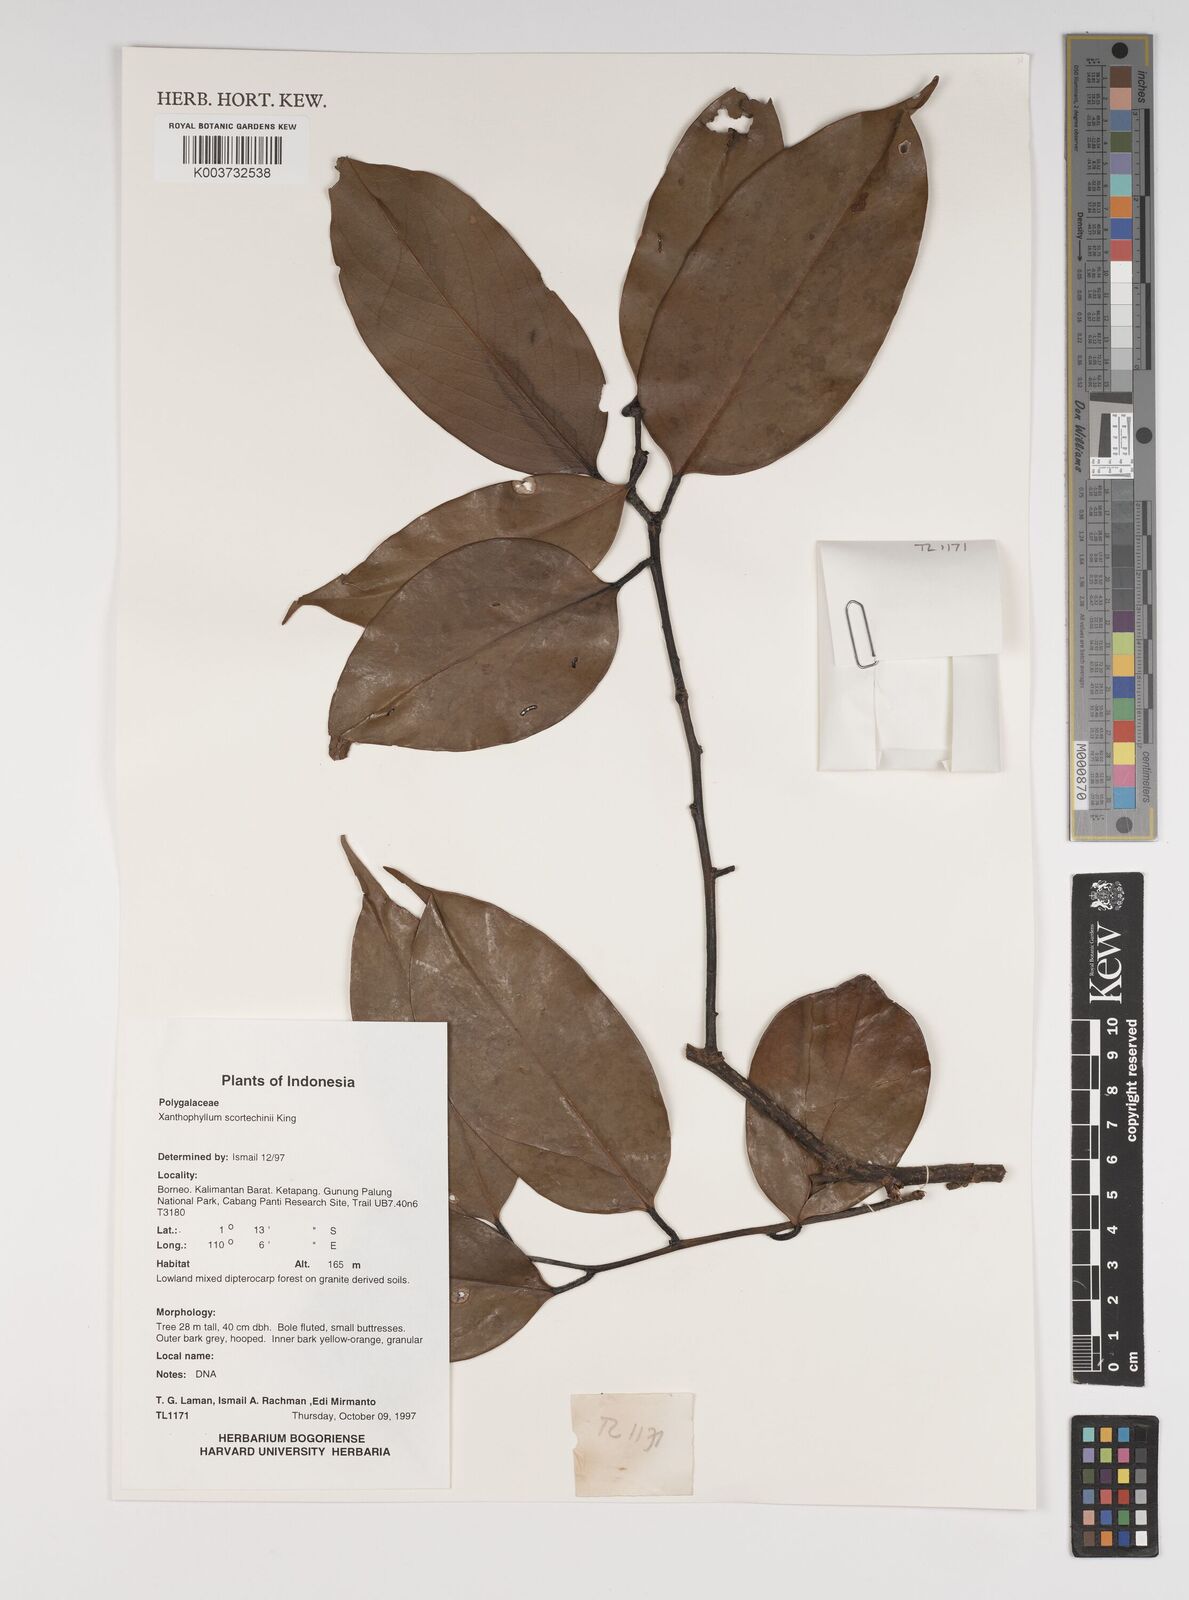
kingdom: Plantae
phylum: Tracheophyta
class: Magnoliopsida
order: Fabales
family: Polygalaceae
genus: Xanthophyllum
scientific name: Xanthophyllum obscurum
